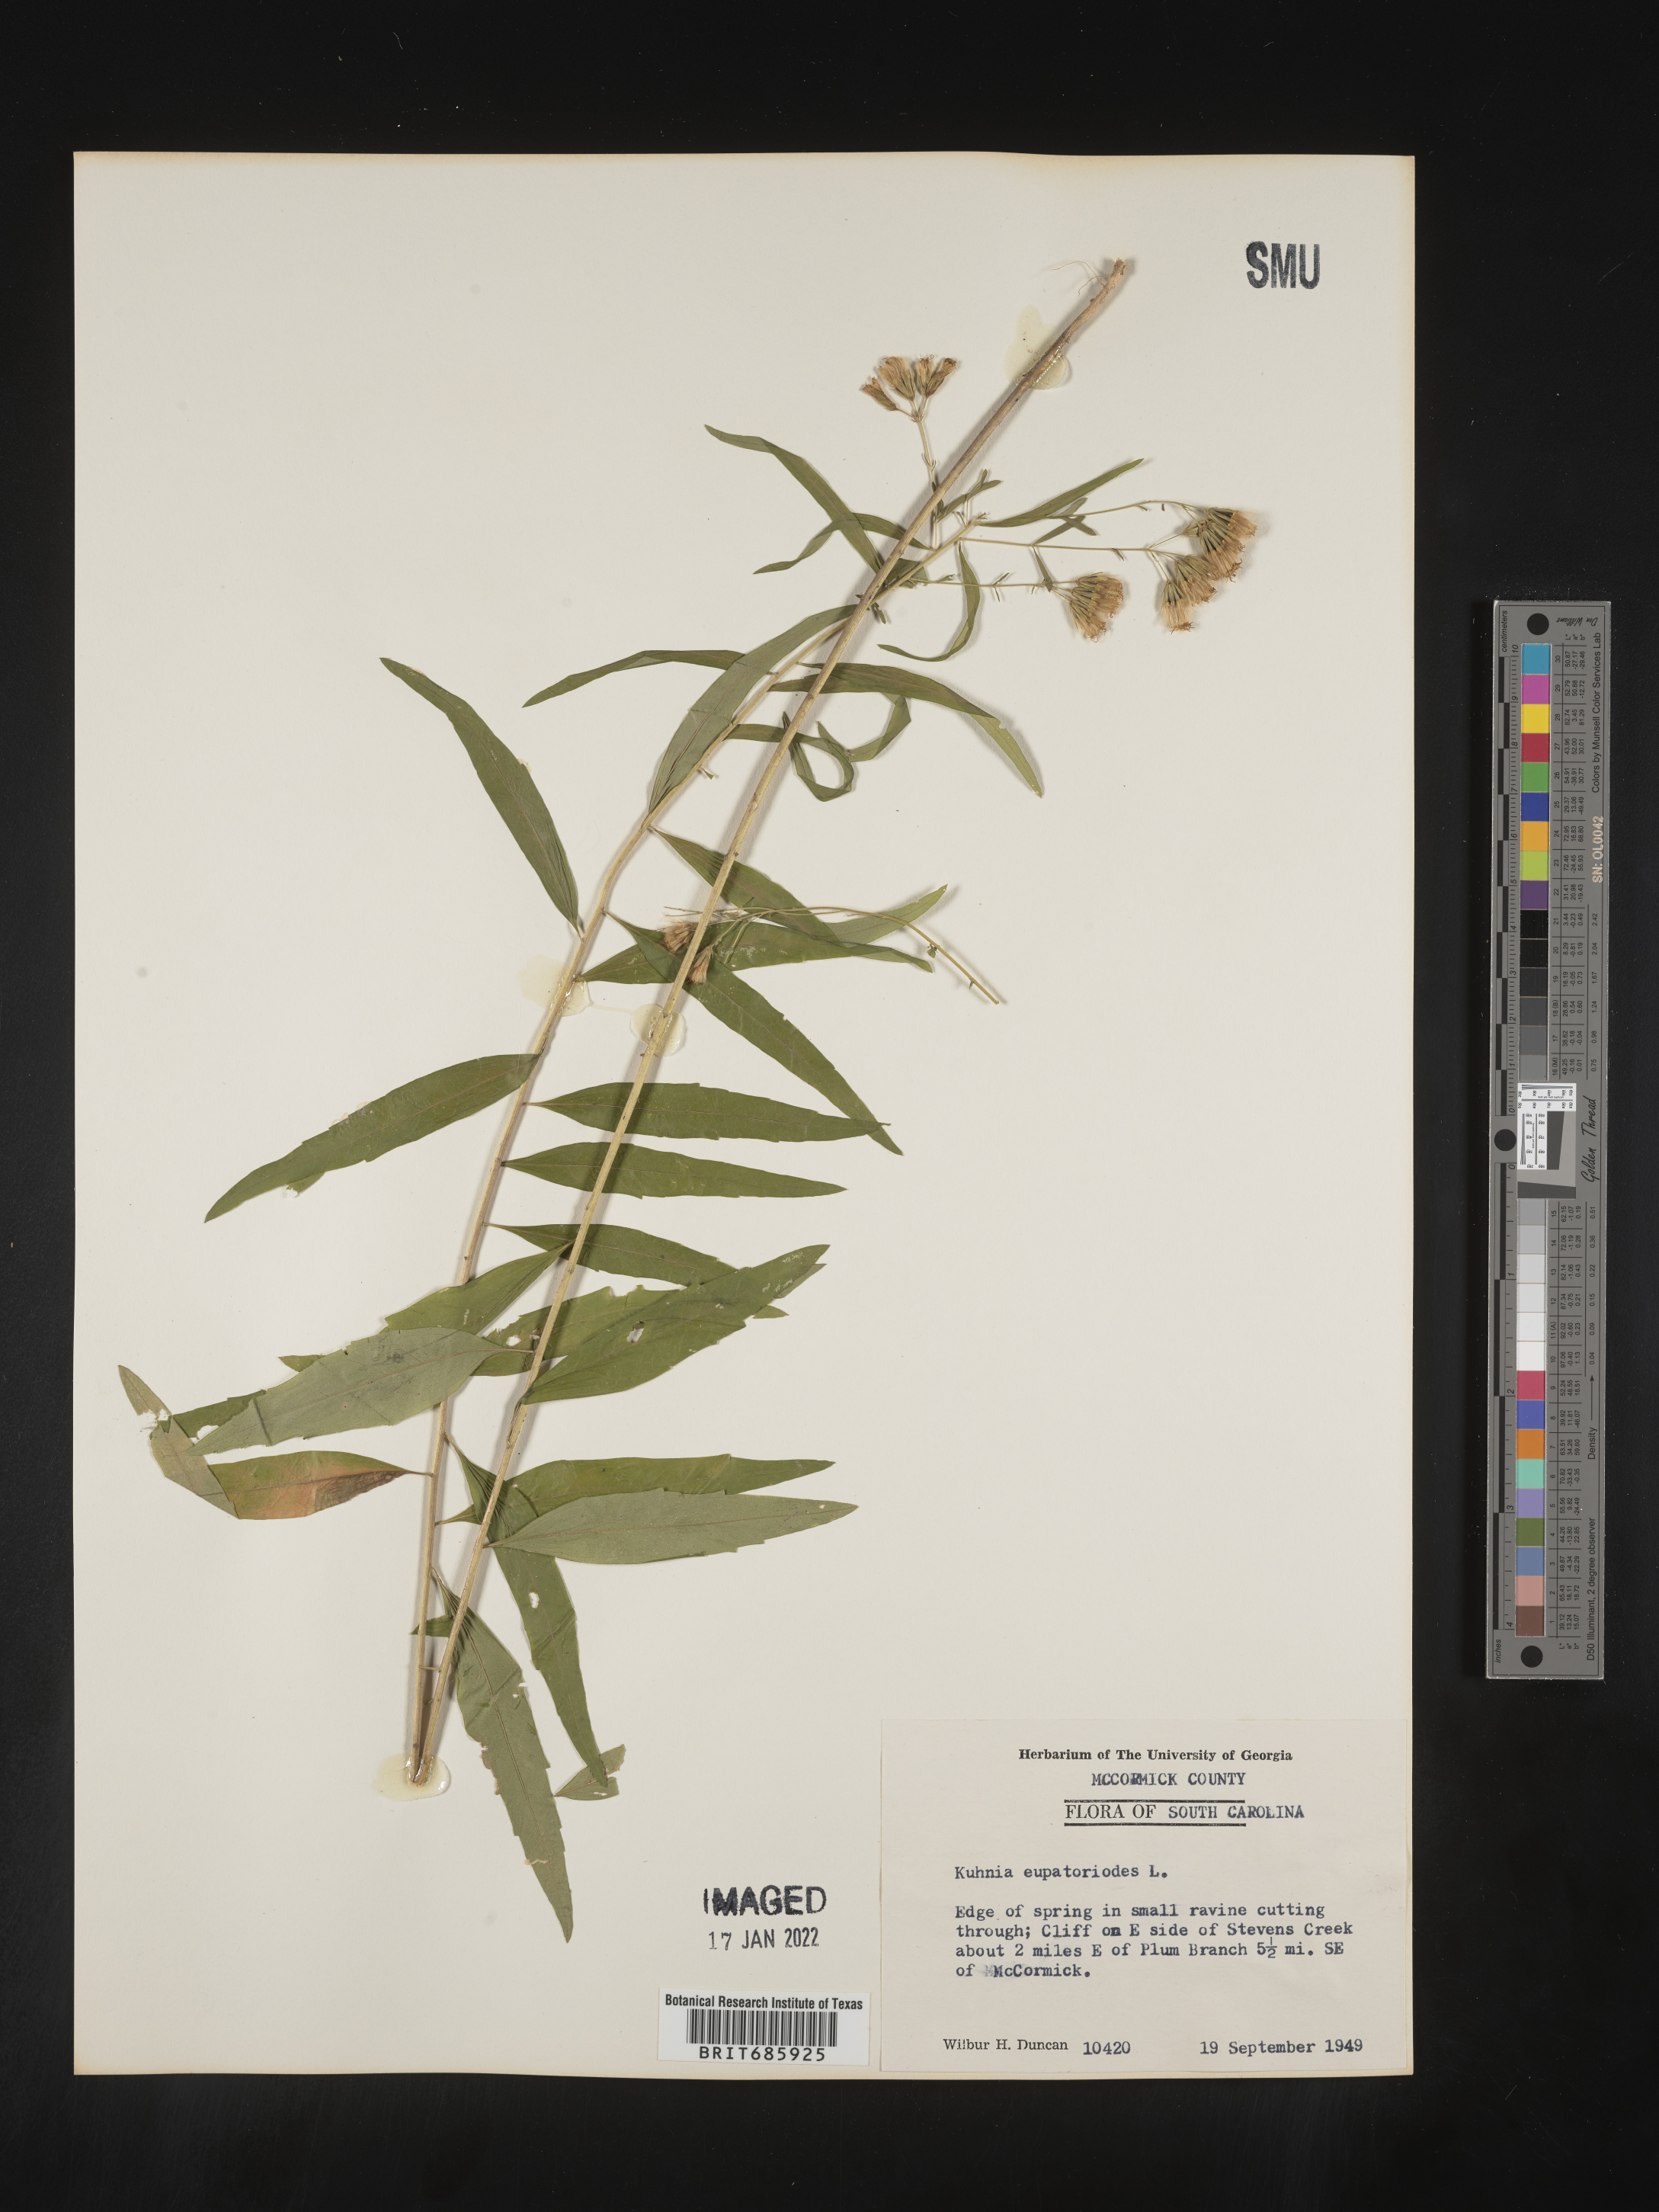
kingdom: Plantae
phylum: Tracheophyta
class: Magnoliopsida
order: Asterales
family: Asteraceae
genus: Brickellia
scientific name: Brickellia eupatorioides
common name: False boneset
